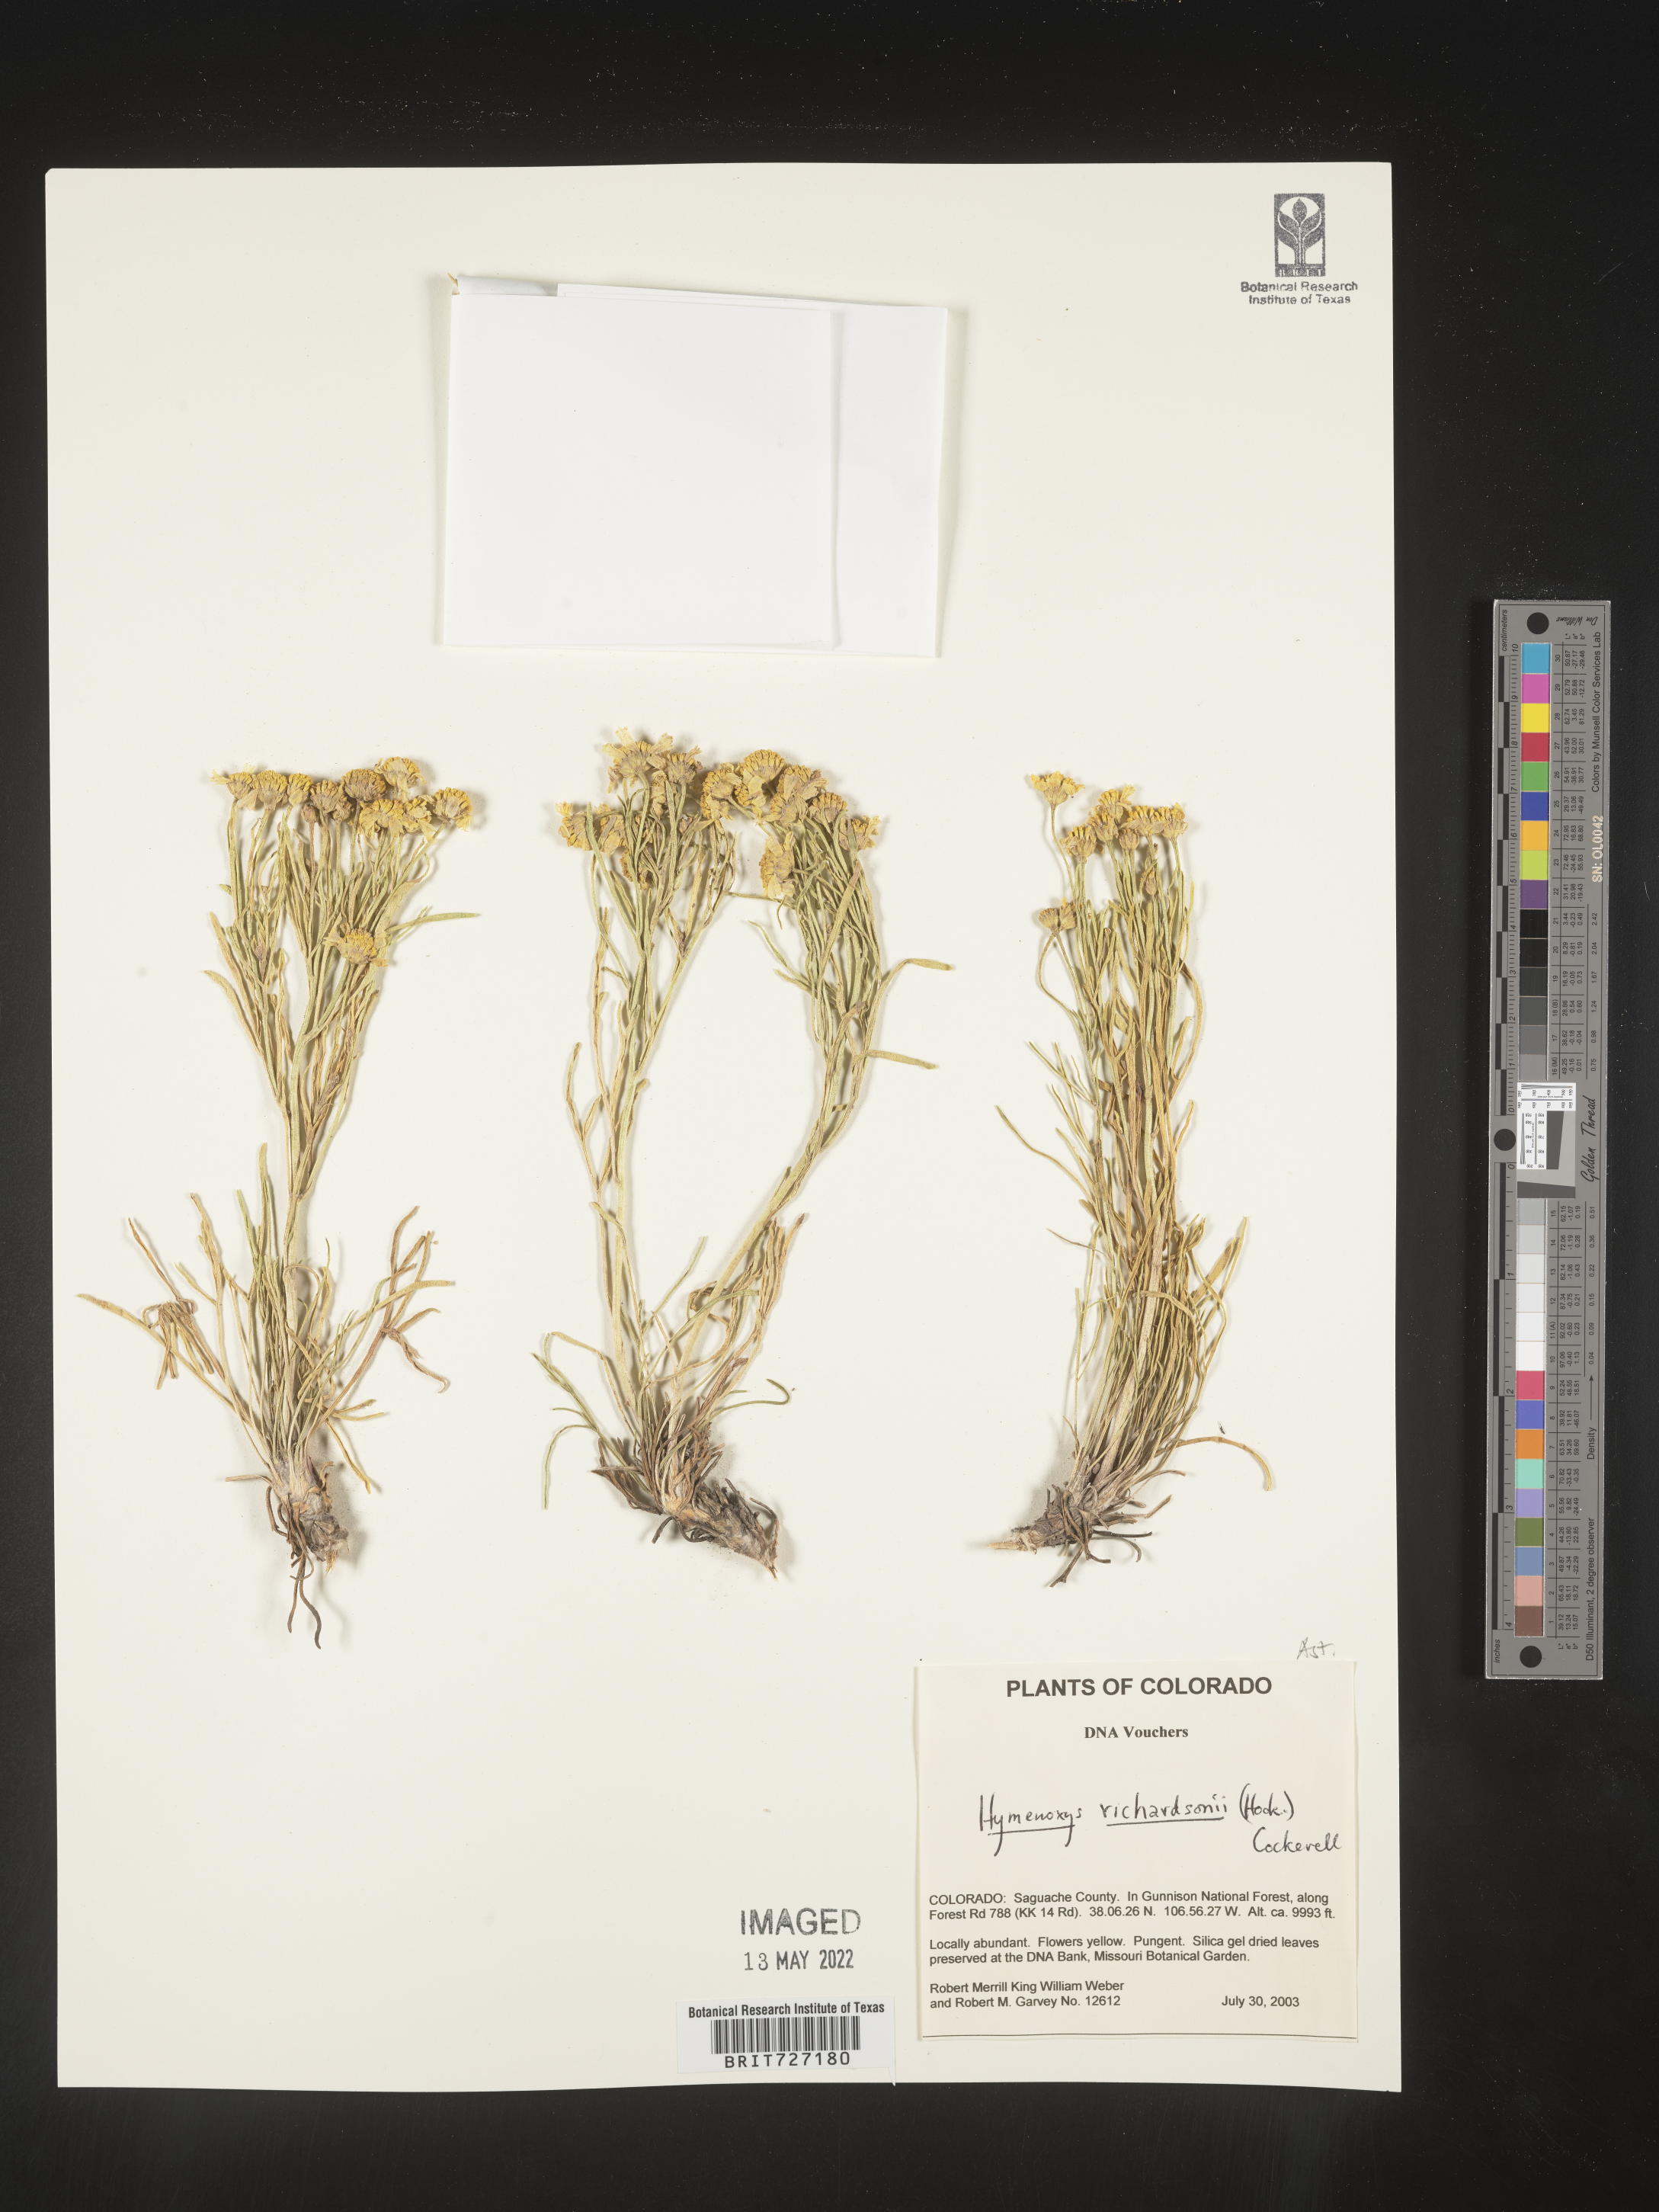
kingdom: Plantae
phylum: Tracheophyta
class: Magnoliopsida
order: Asterales
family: Asteraceae
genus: Hymenoxys
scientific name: Hymenoxys richardsonii
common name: Pingue rubberweed
